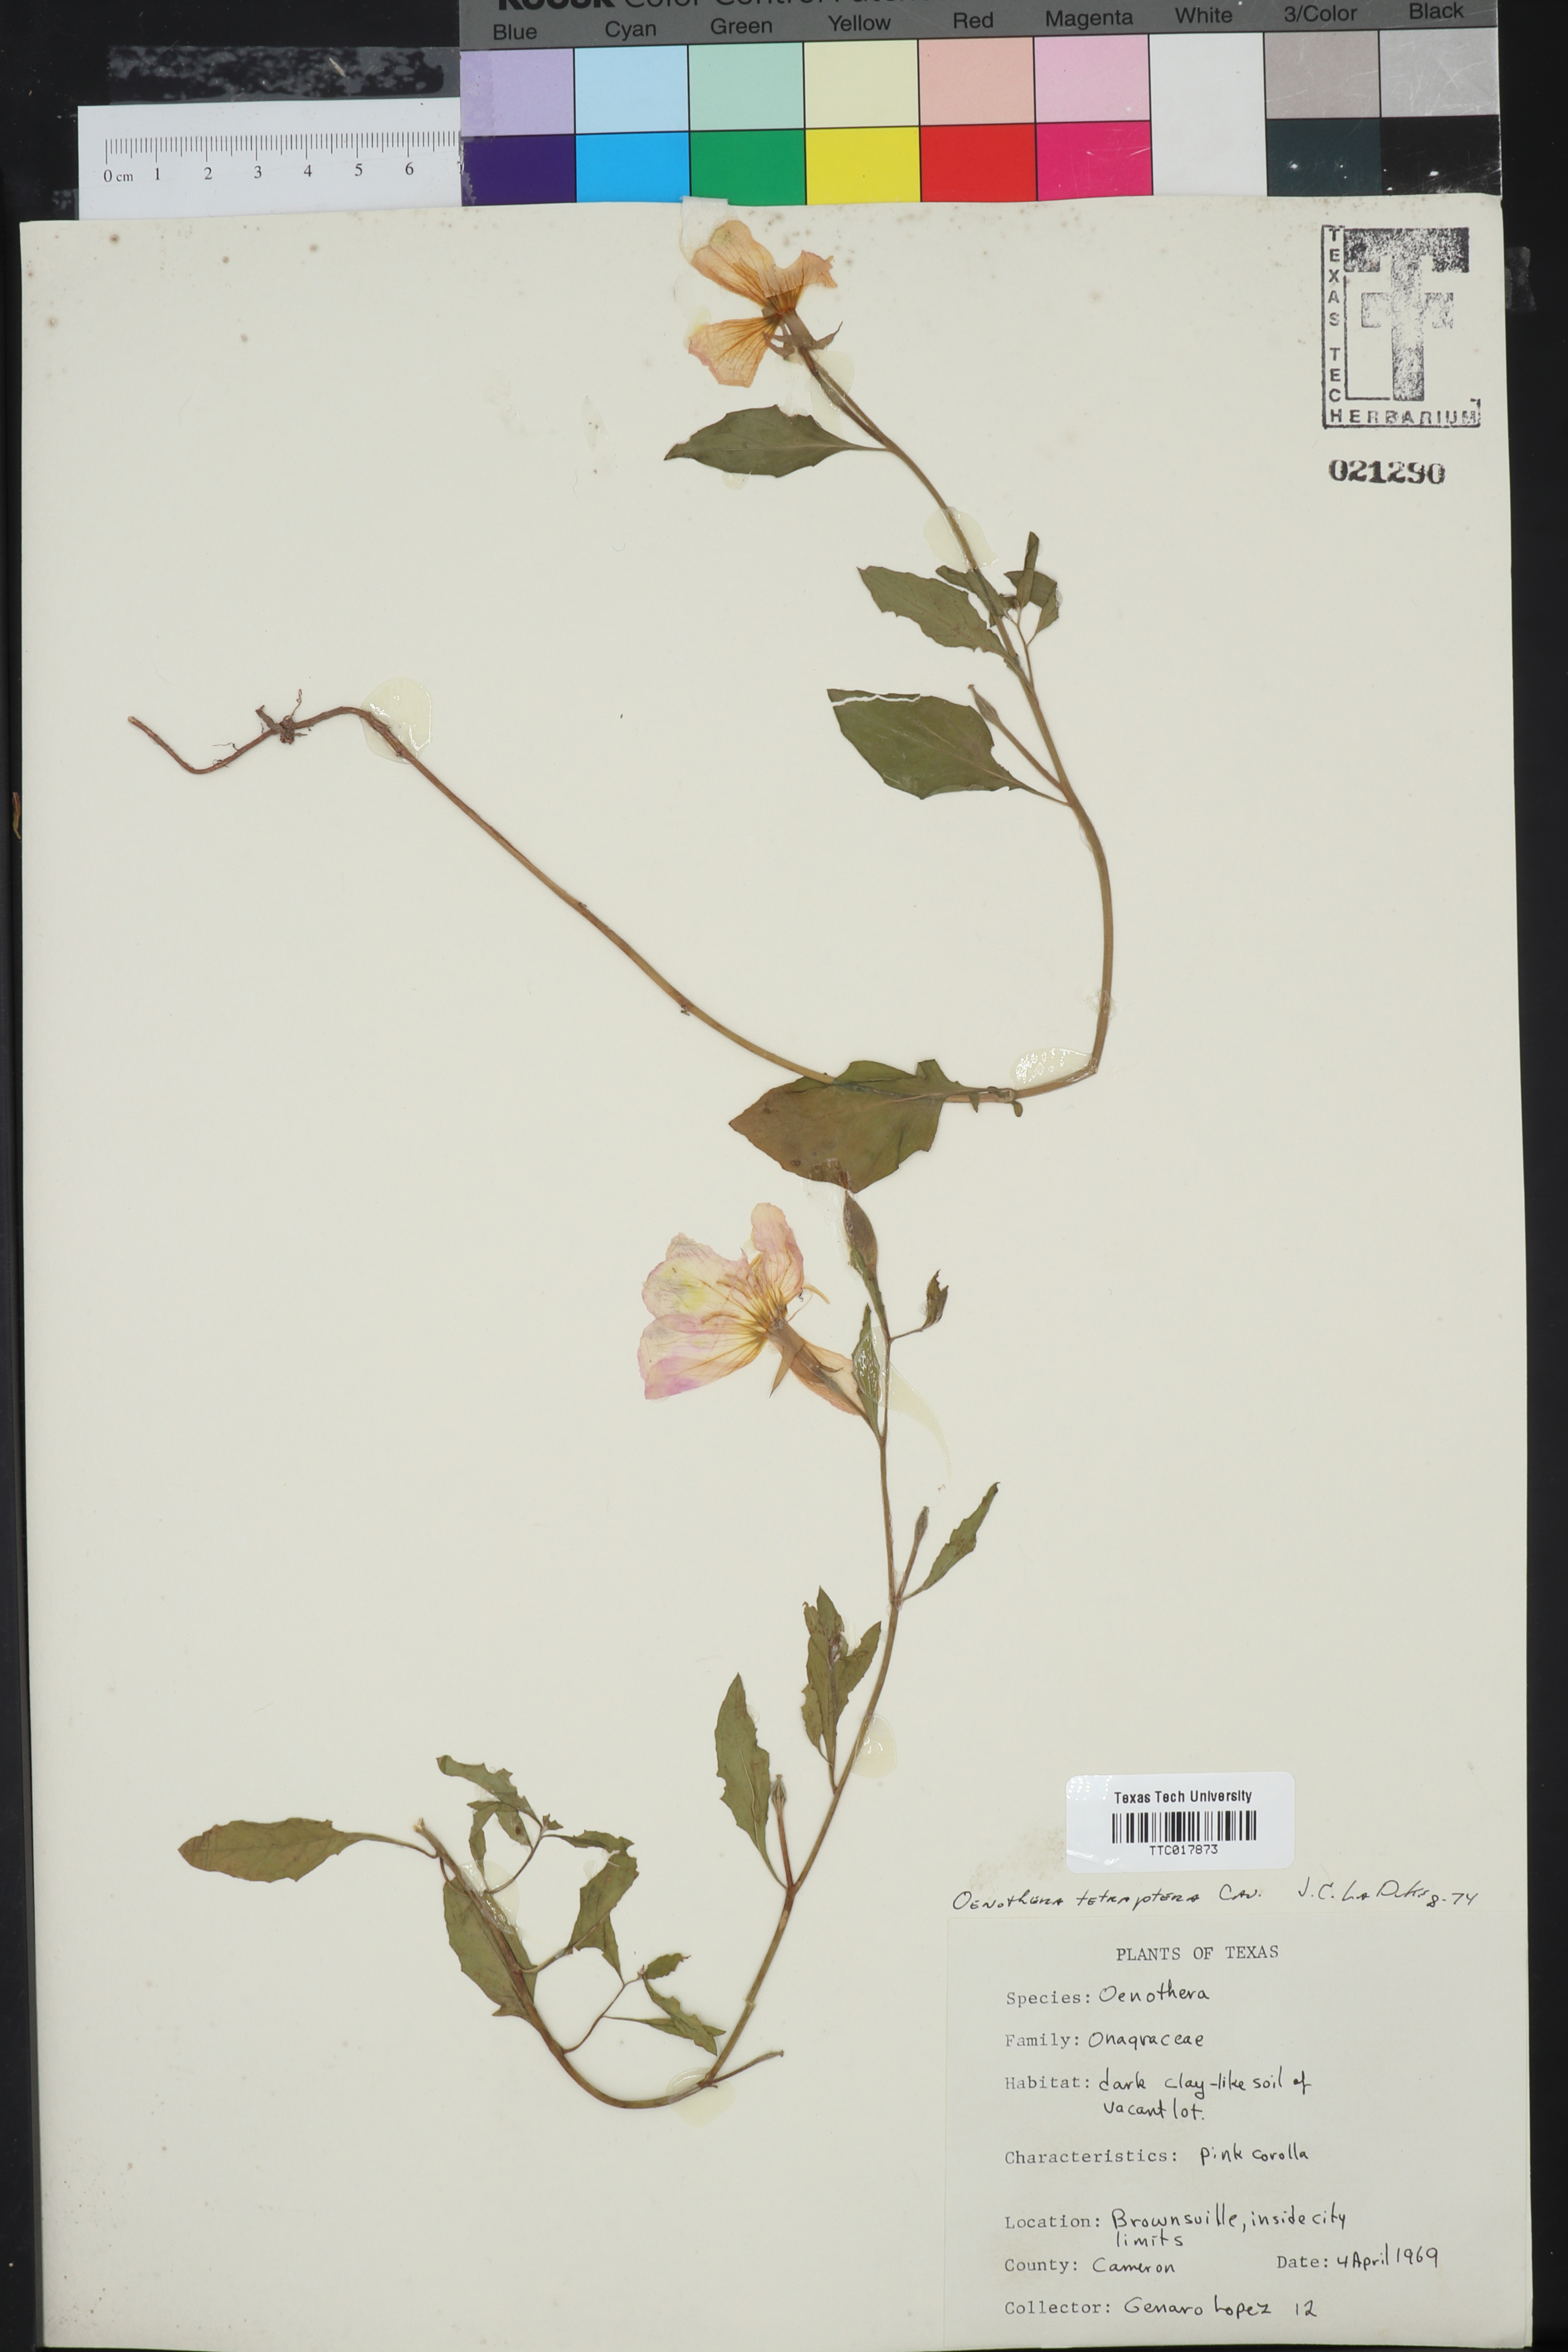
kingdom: Plantae
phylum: Tracheophyta
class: Magnoliopsida
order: Myrtales
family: Onagraceae
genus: Oenothera
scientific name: Oenothera tetraptera
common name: Four-wing evening-primrose
